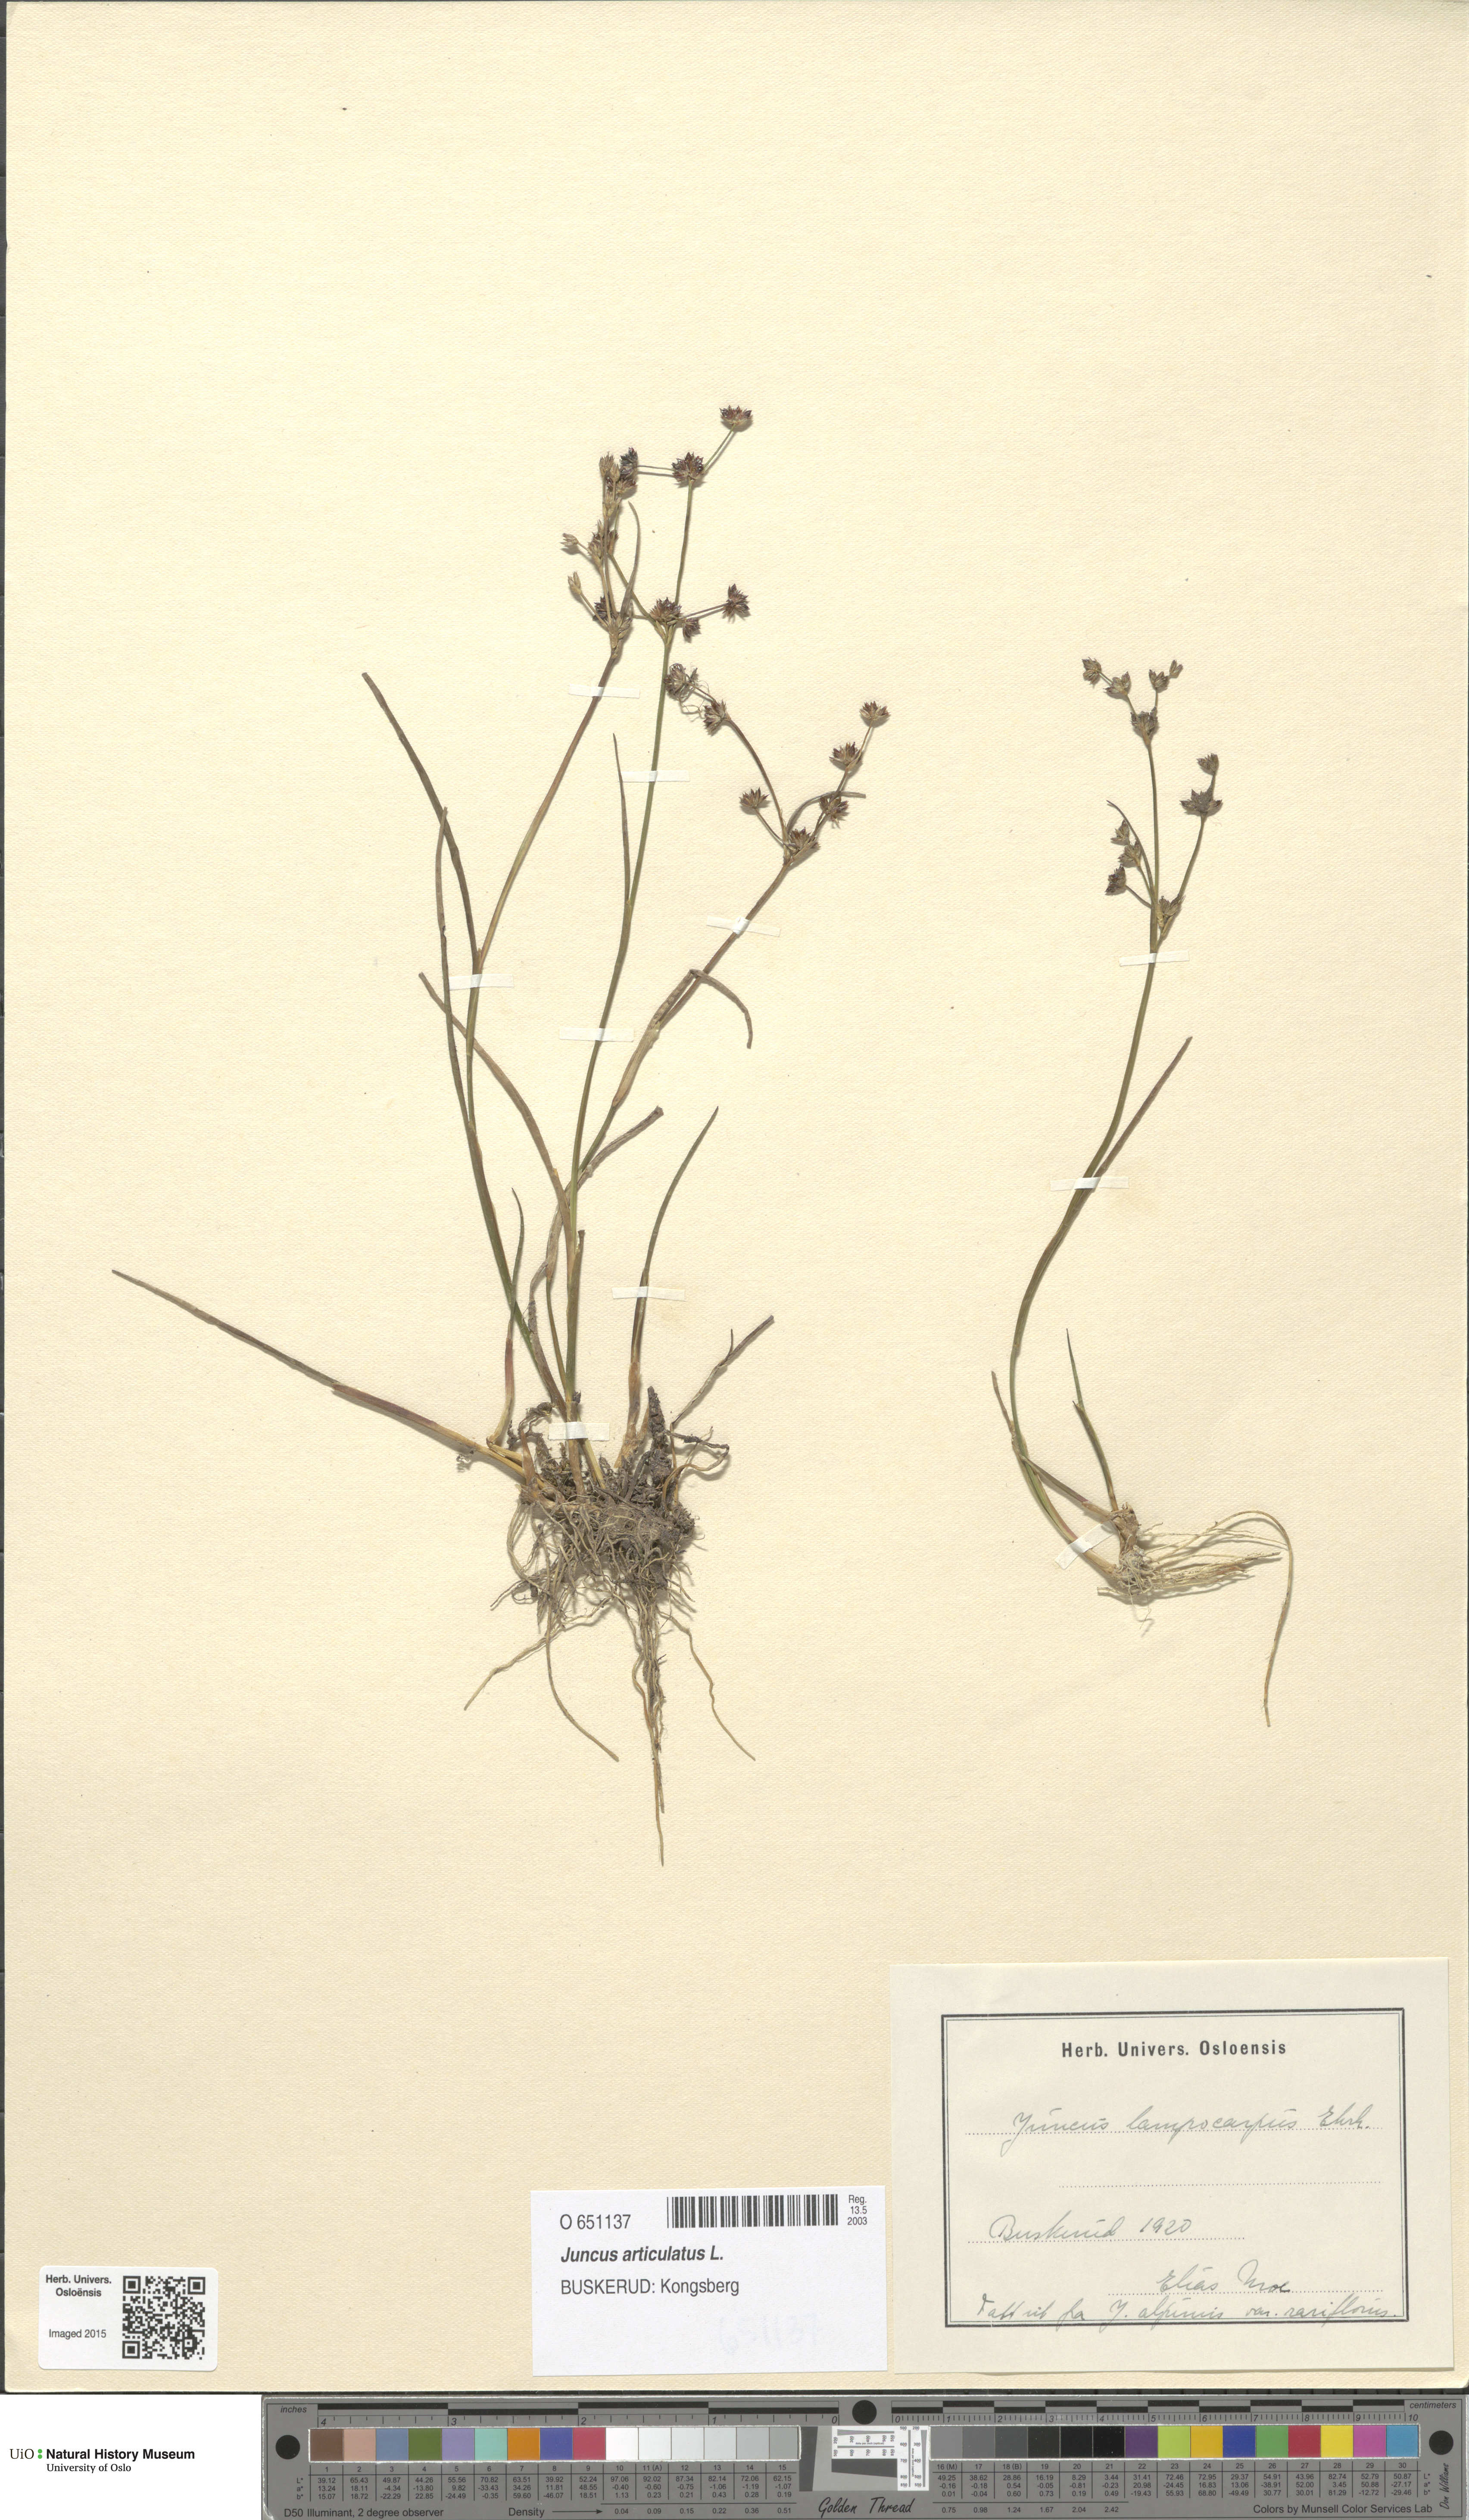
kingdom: Plantae
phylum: Tracheophyta
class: Liliopsida
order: Poales
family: Juncaceae
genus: Juncus
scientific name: Juncus articulatus
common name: Jointed rush
